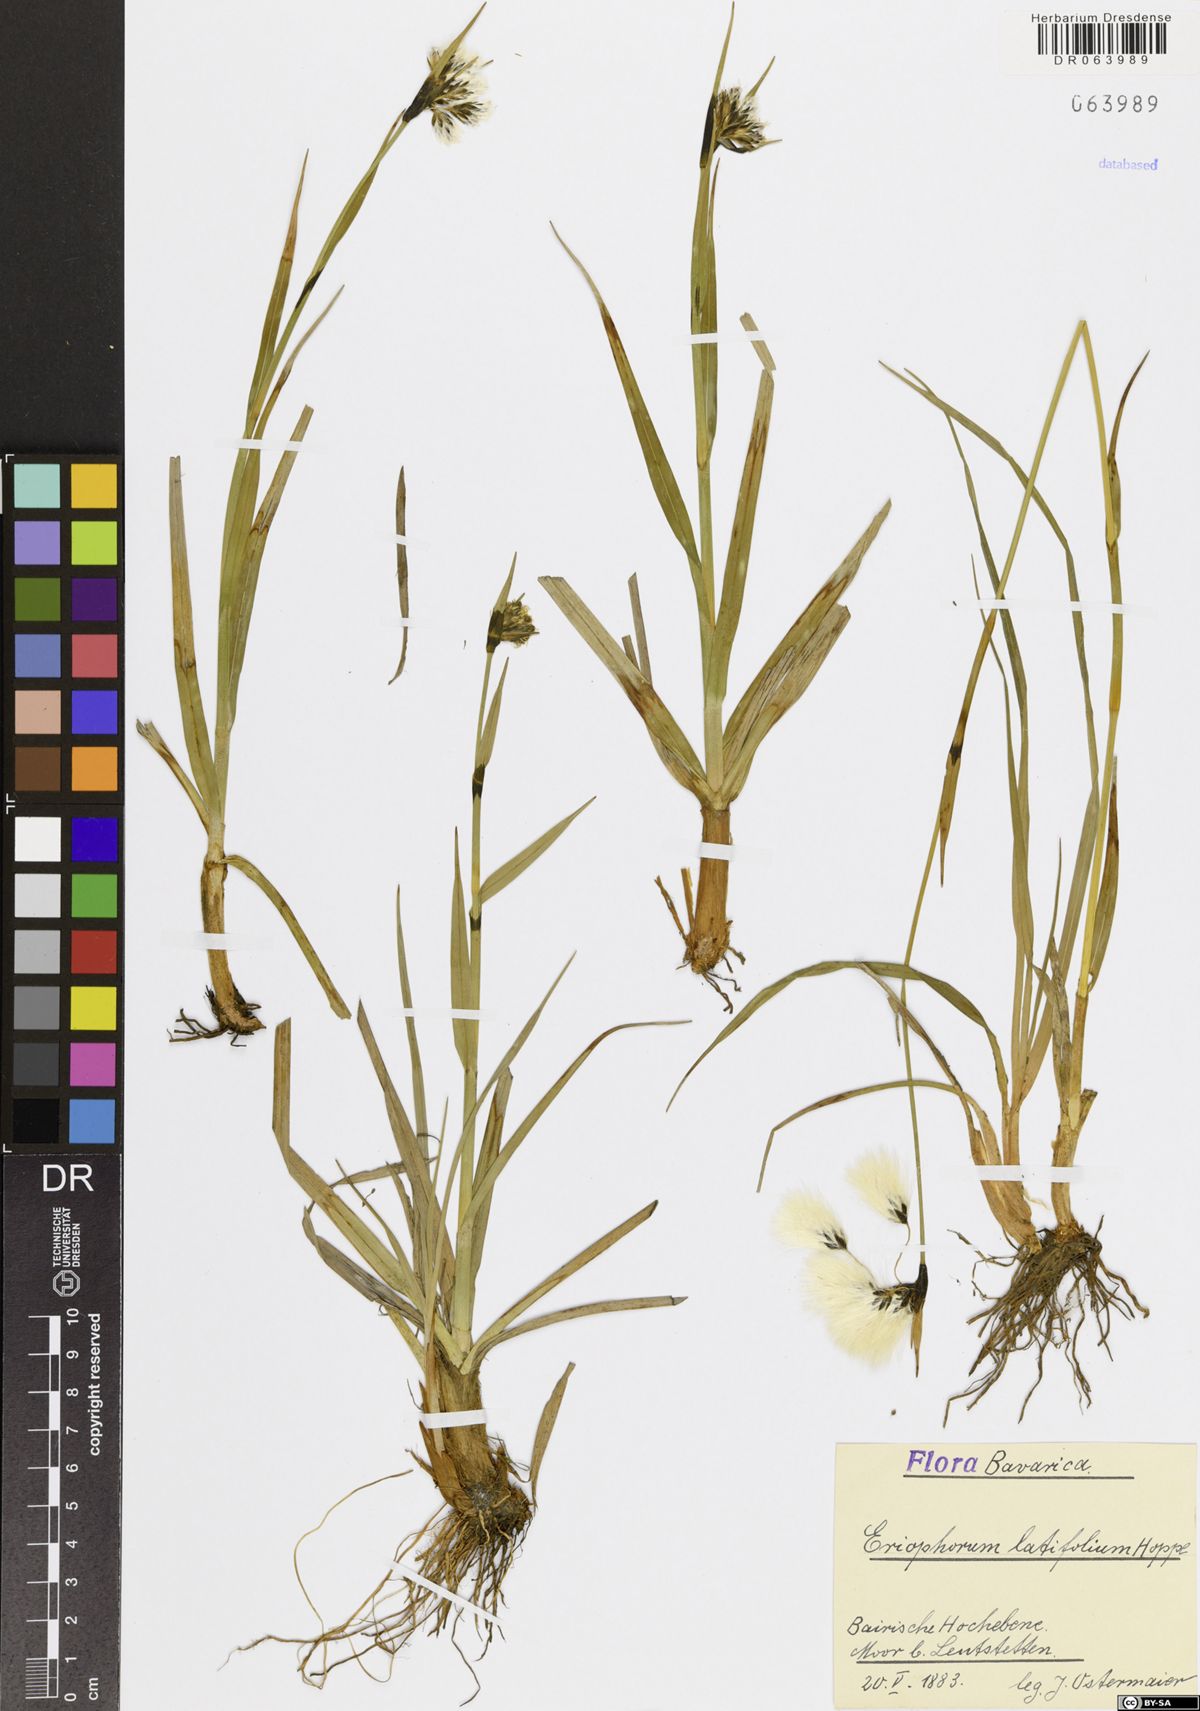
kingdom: Plantae
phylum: Tracheophyta
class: Liliopsida
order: Poales
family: Cyperaceae
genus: Eriophorum
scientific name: Eriophorum latifolium
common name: Broad-leaved cottongrass
